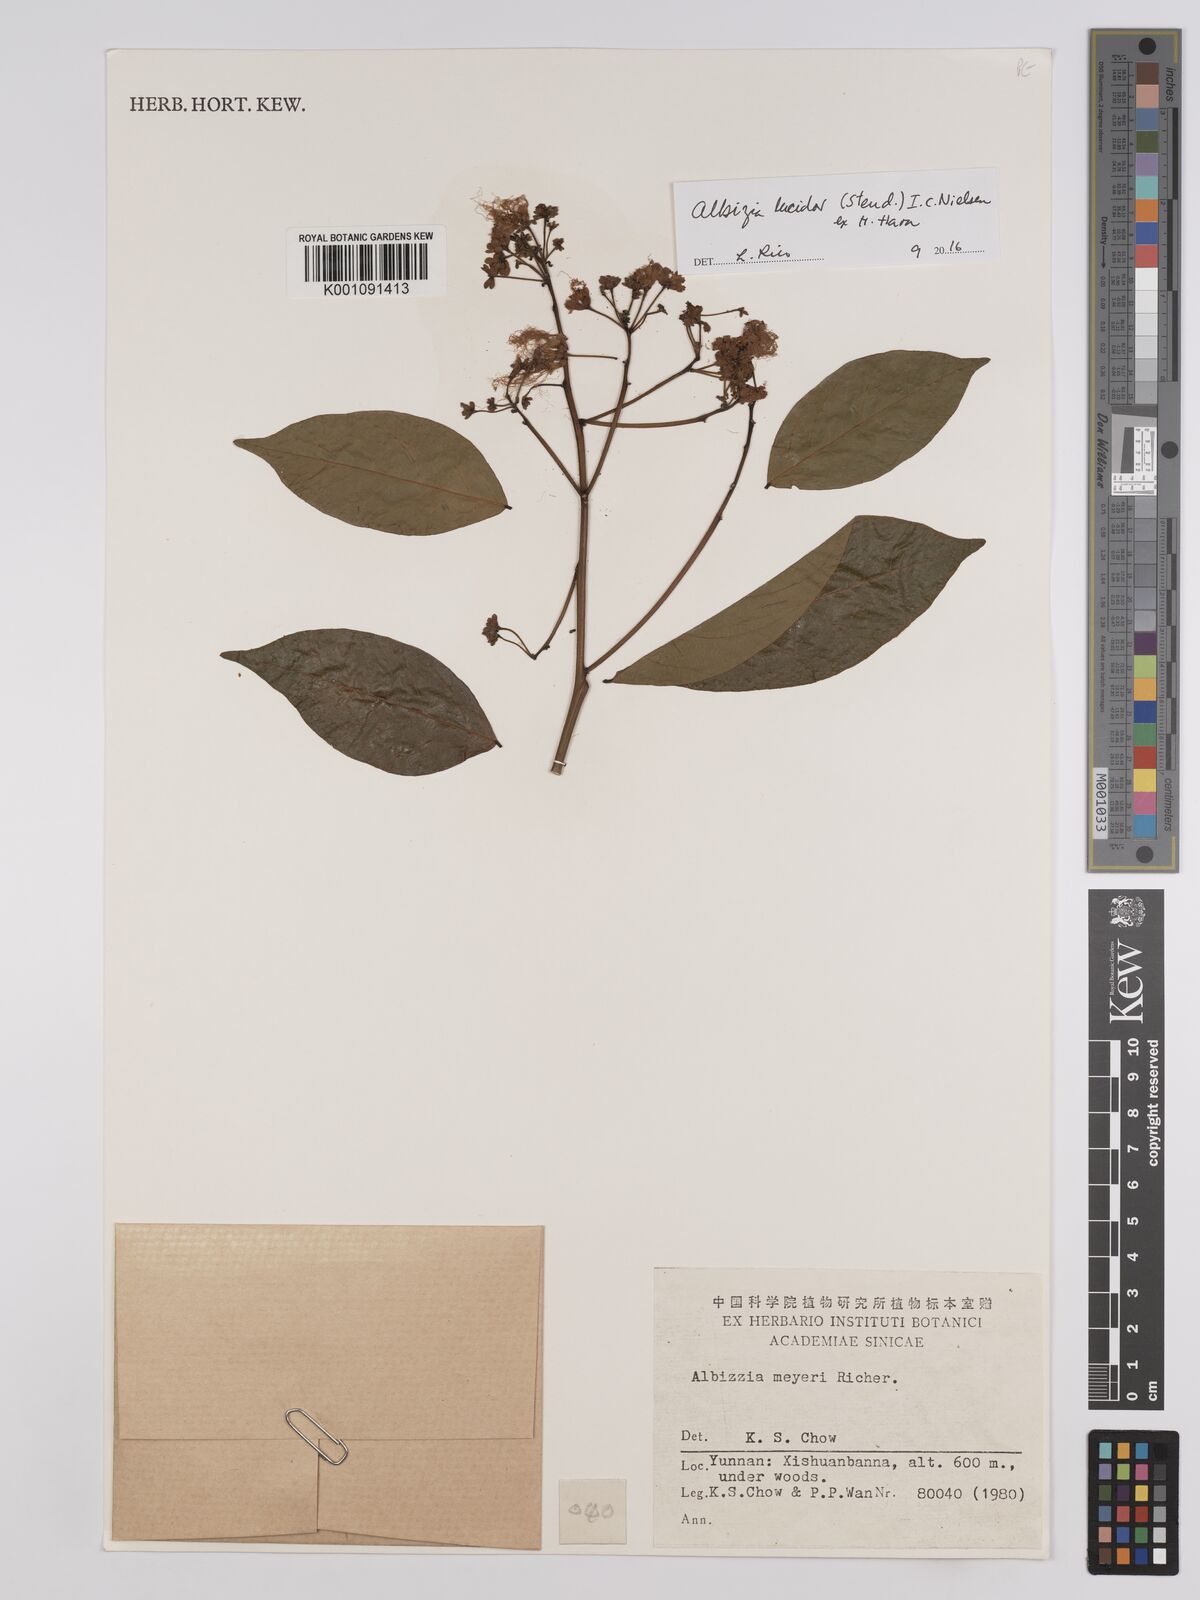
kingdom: Plantae
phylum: Tracheophyta
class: Magnoliopsida
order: Fabales
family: Fabaceae
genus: Albizia
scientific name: Albizia
